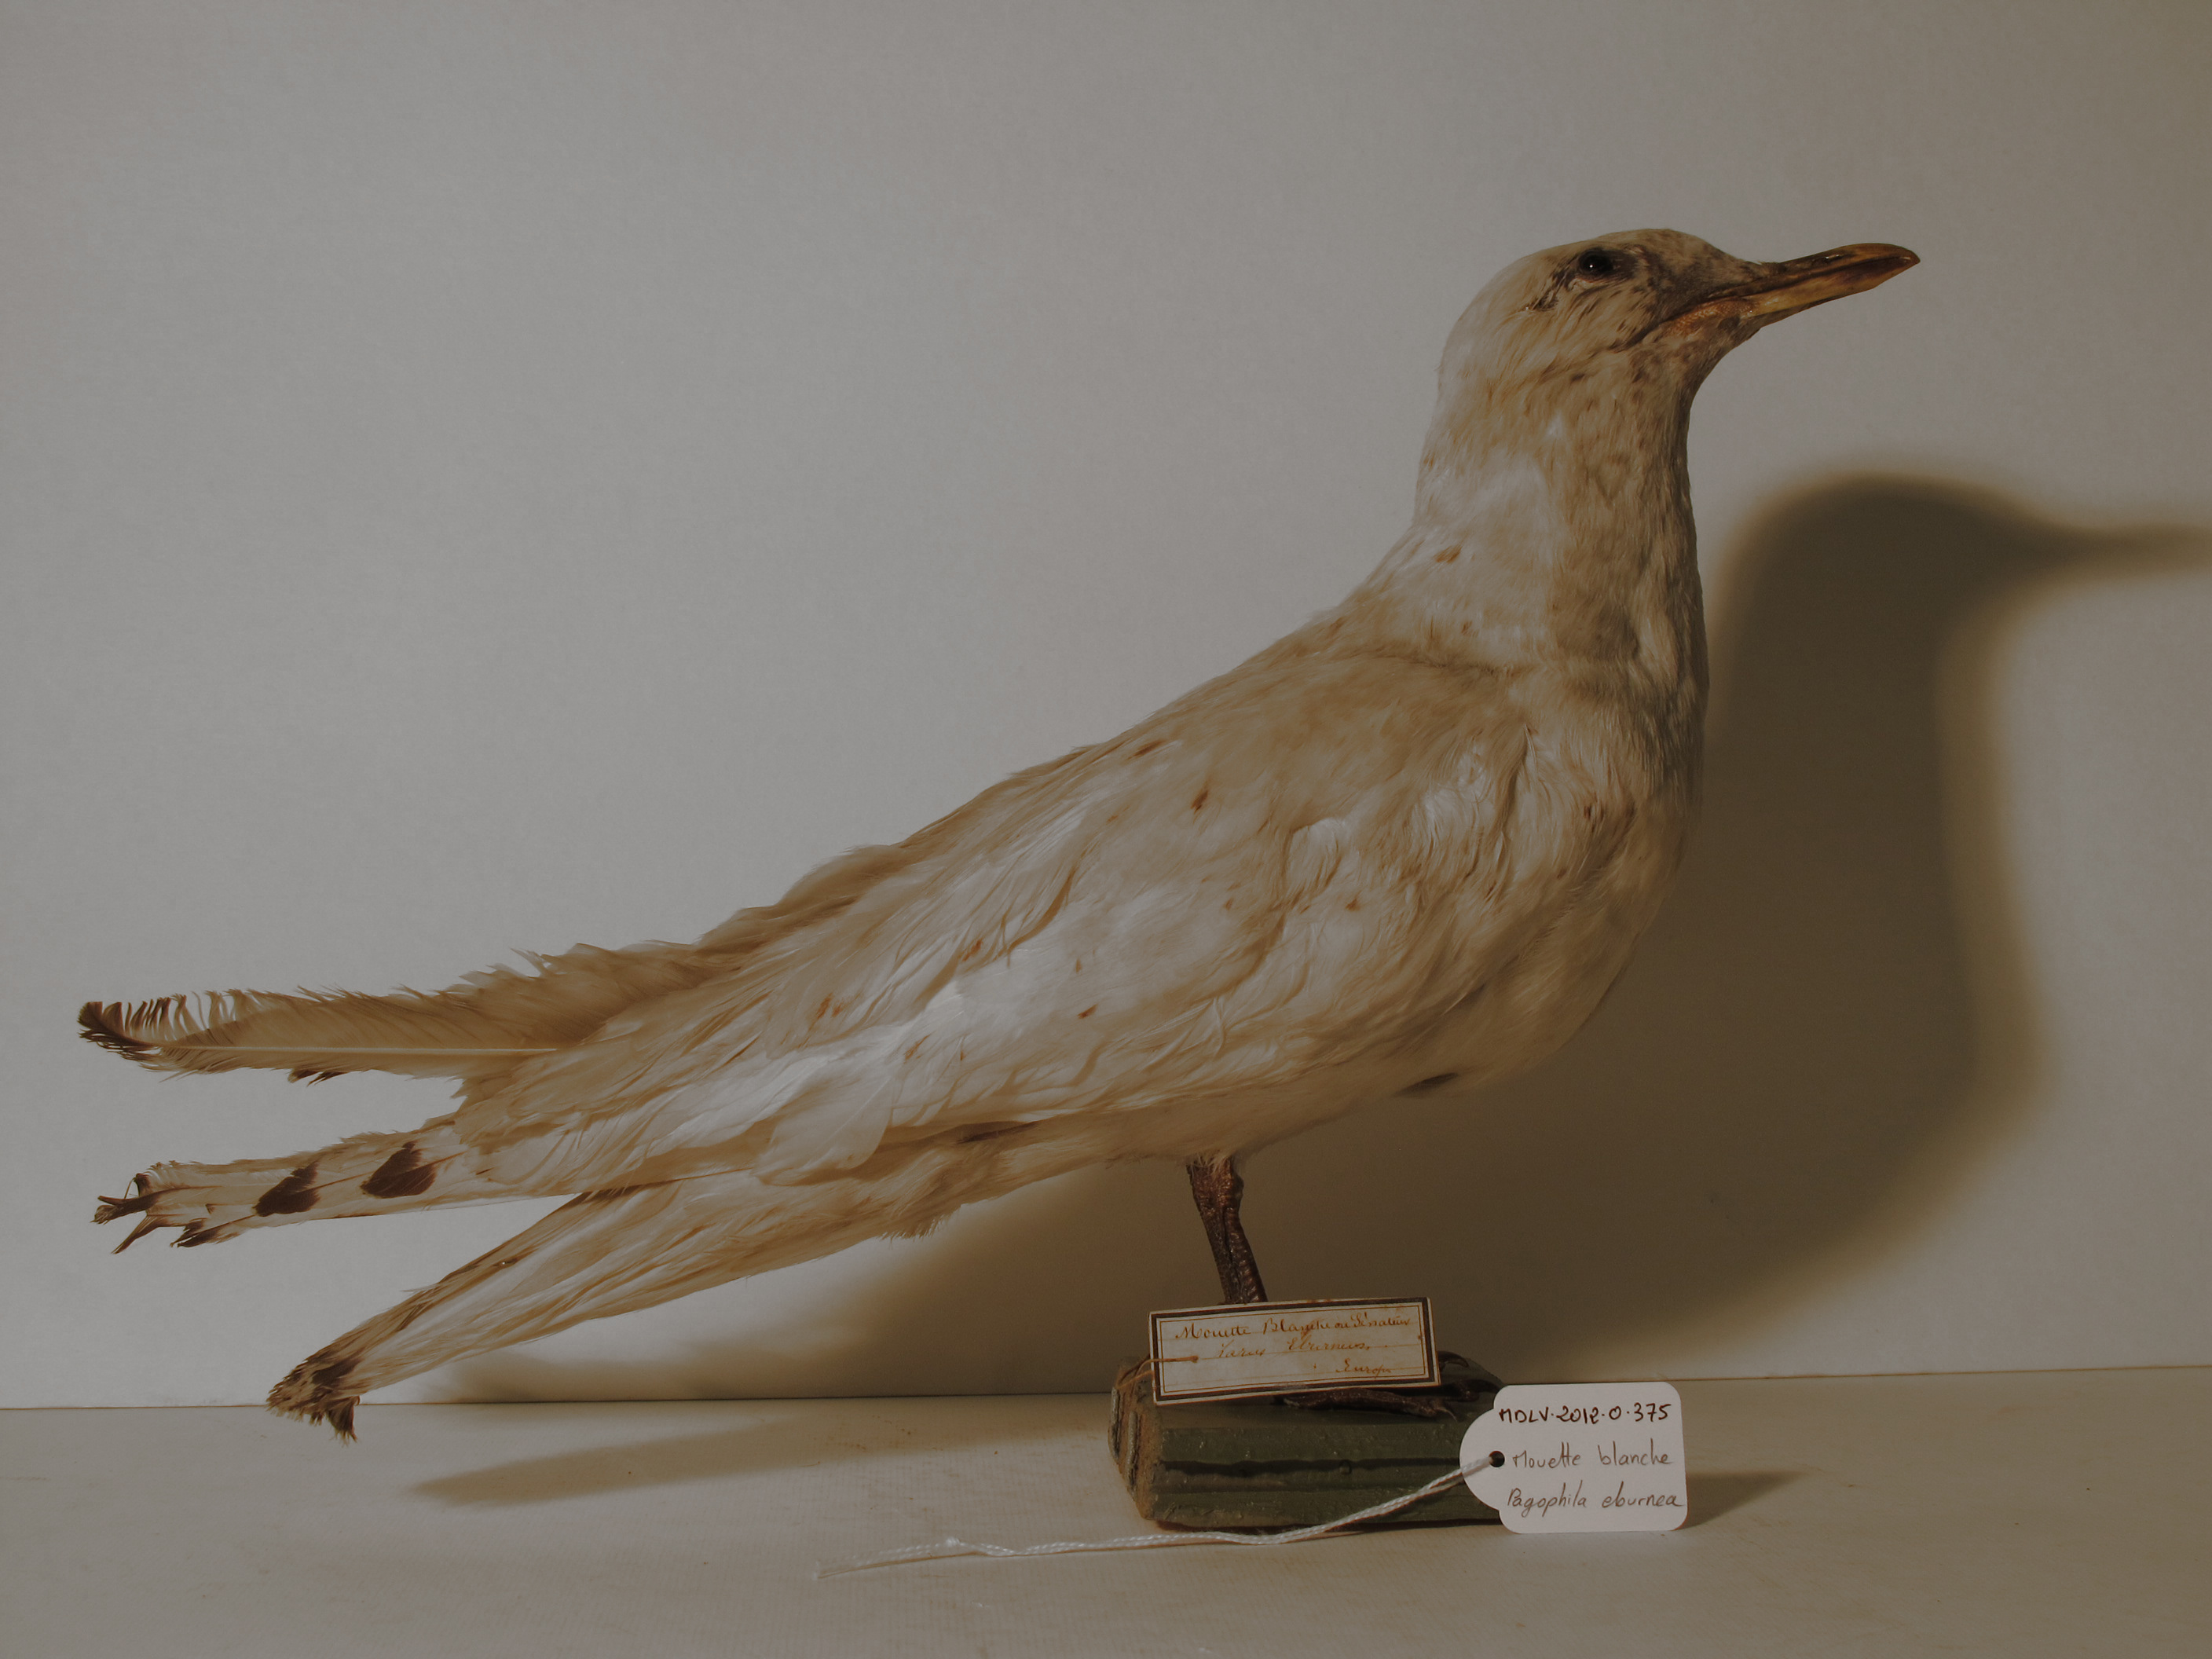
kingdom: Animalia
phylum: Chordata
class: Aves
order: Charadriiformes
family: Laridae
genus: Pagophila
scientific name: Pagophila eburnea
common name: Ivory Gull
